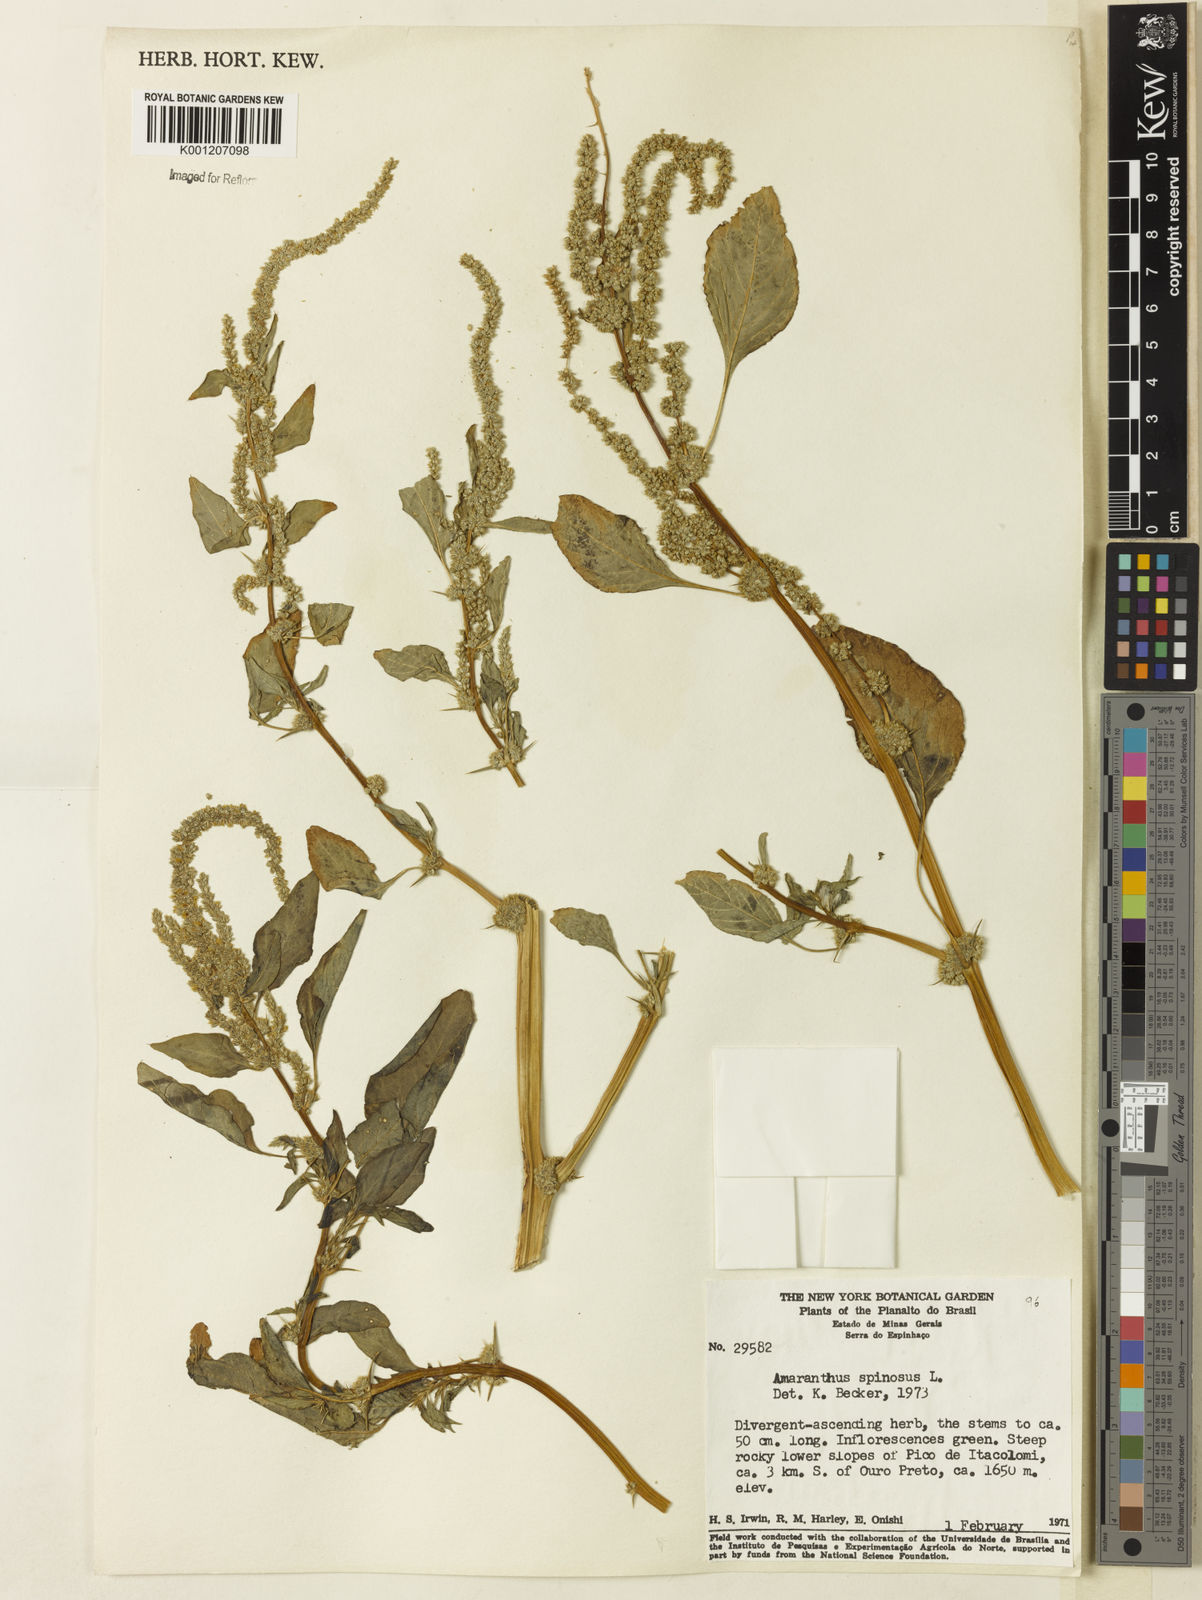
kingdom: Plantae
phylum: Tracheophyta
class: Magnoliopsida
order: Caryophyllales
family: Amaranthaceae
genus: Amaranthus
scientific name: Amaranthus spinosus
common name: Spiny amaranth
